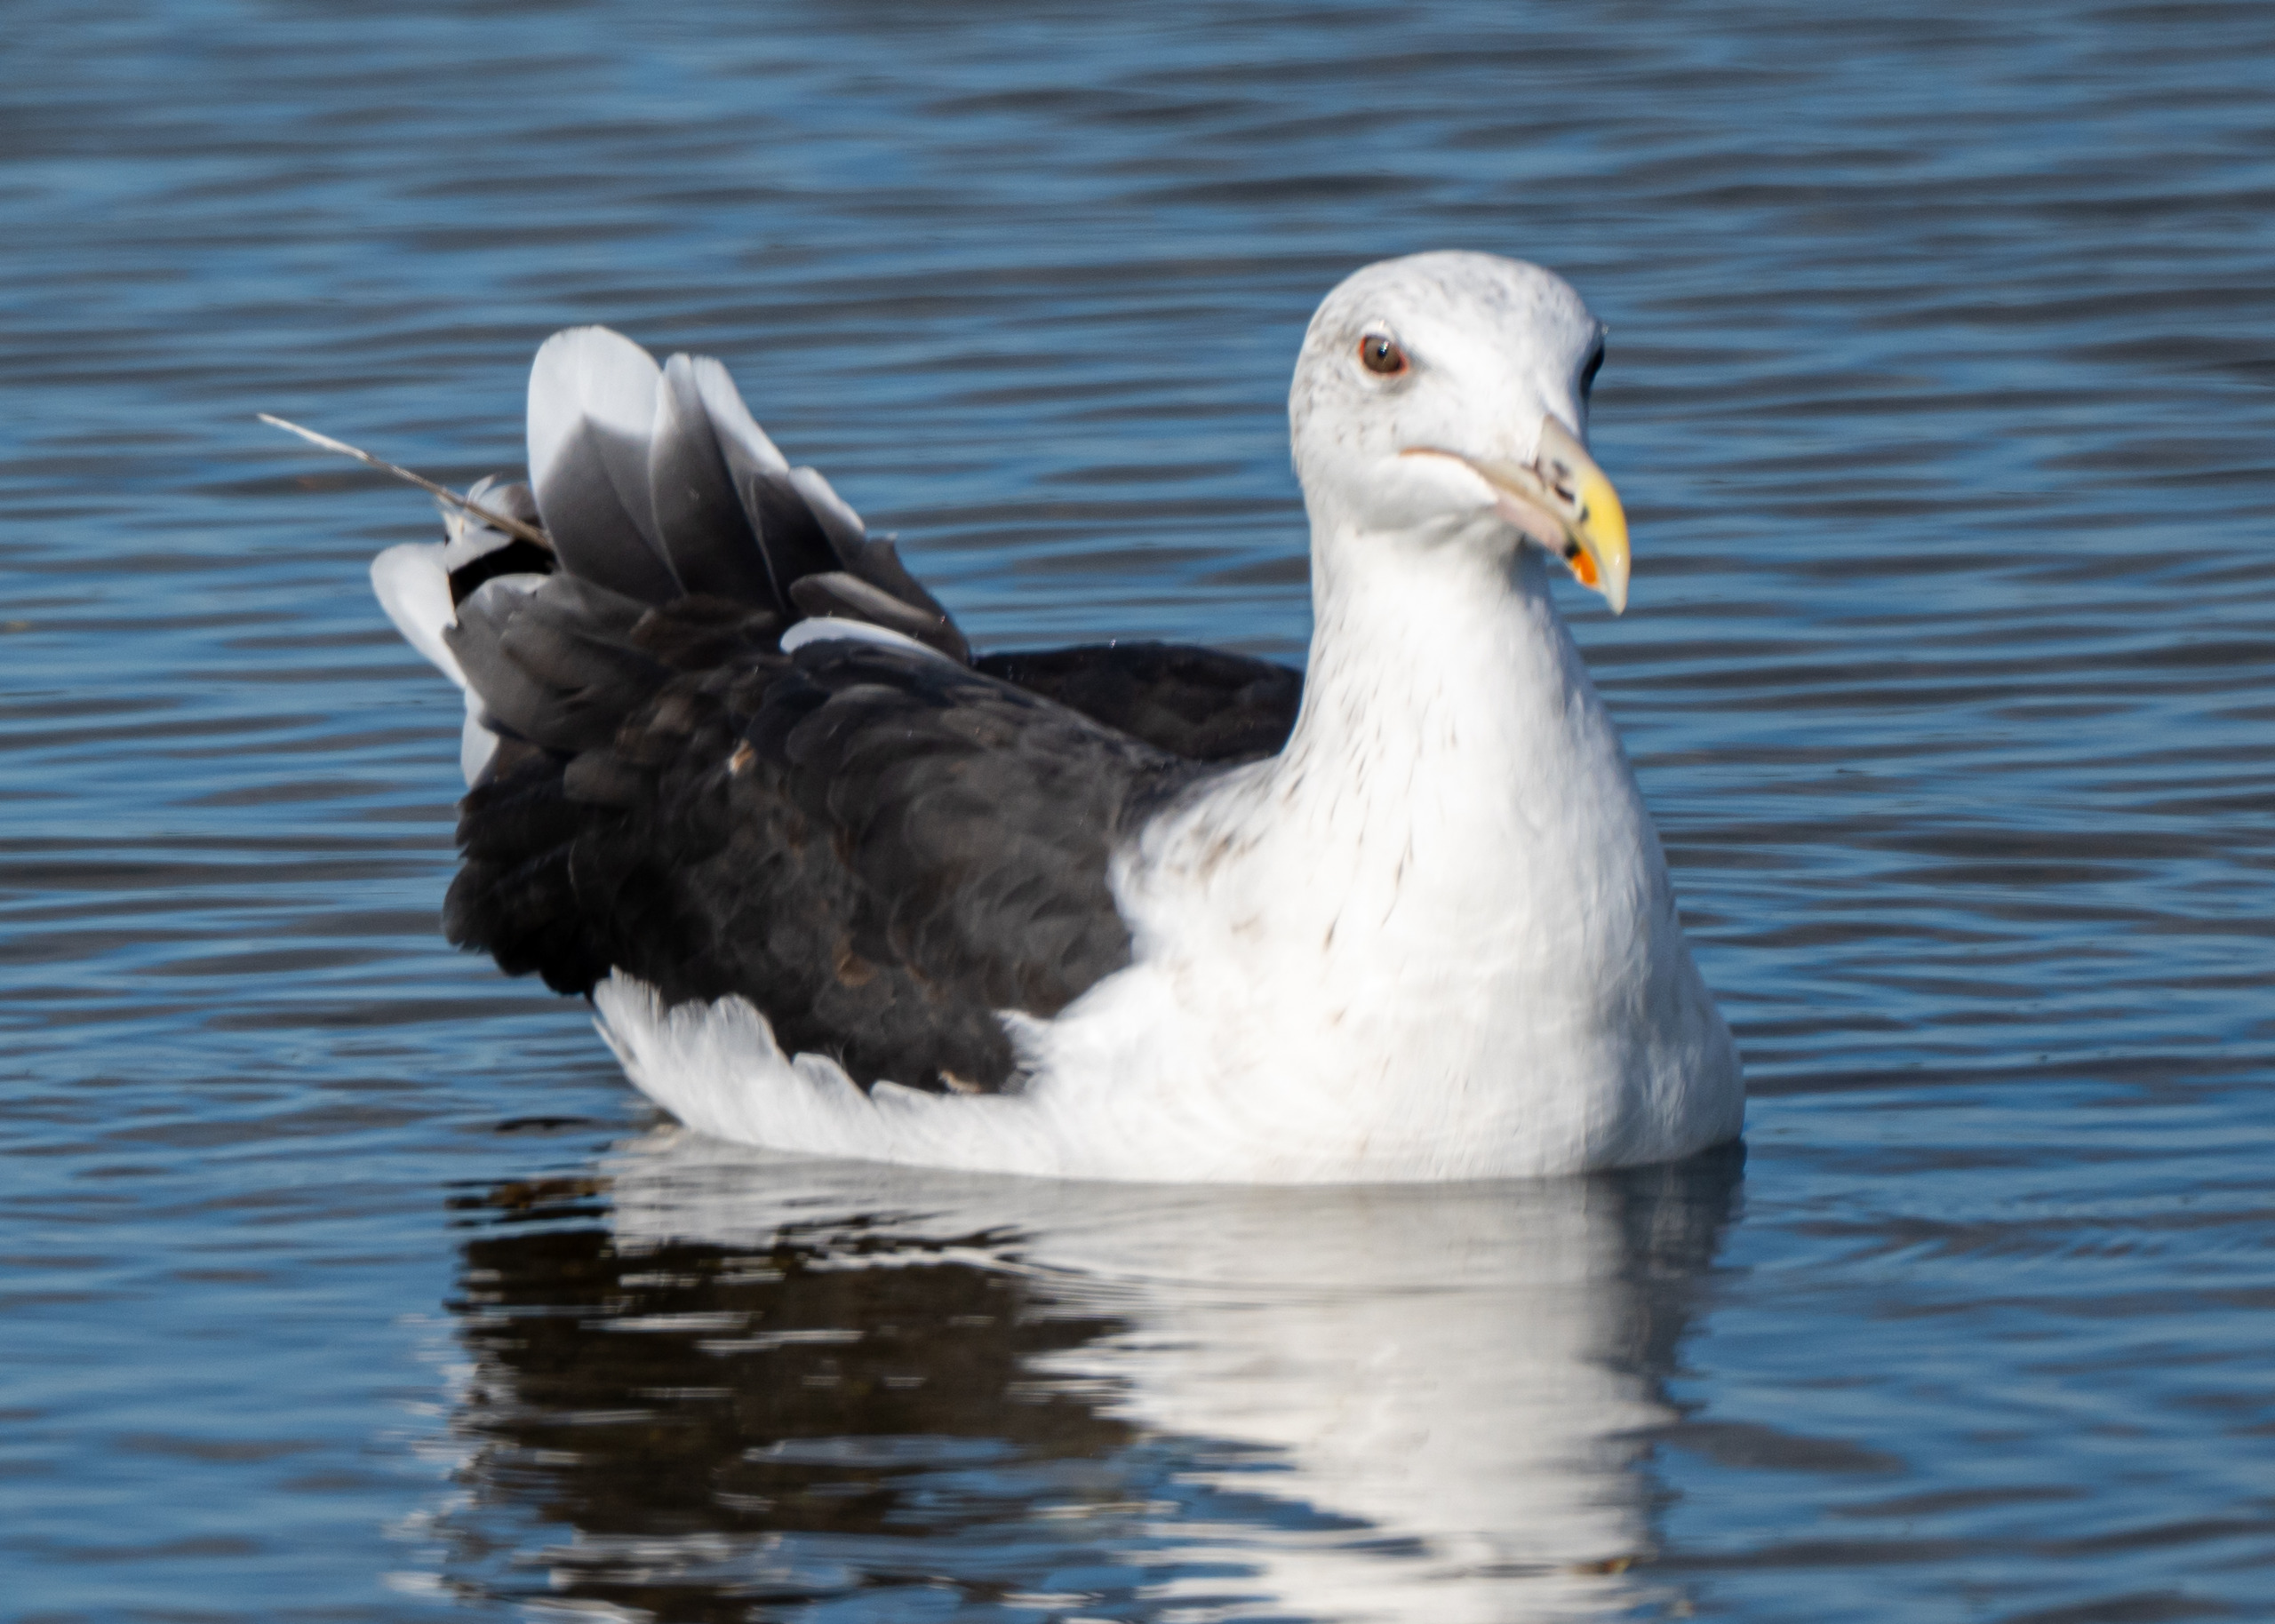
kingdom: Animalia
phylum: Chordata
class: Aves
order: Charadriiformes
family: Laridae
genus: Larus
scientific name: Larus marinus
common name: Svartbag
